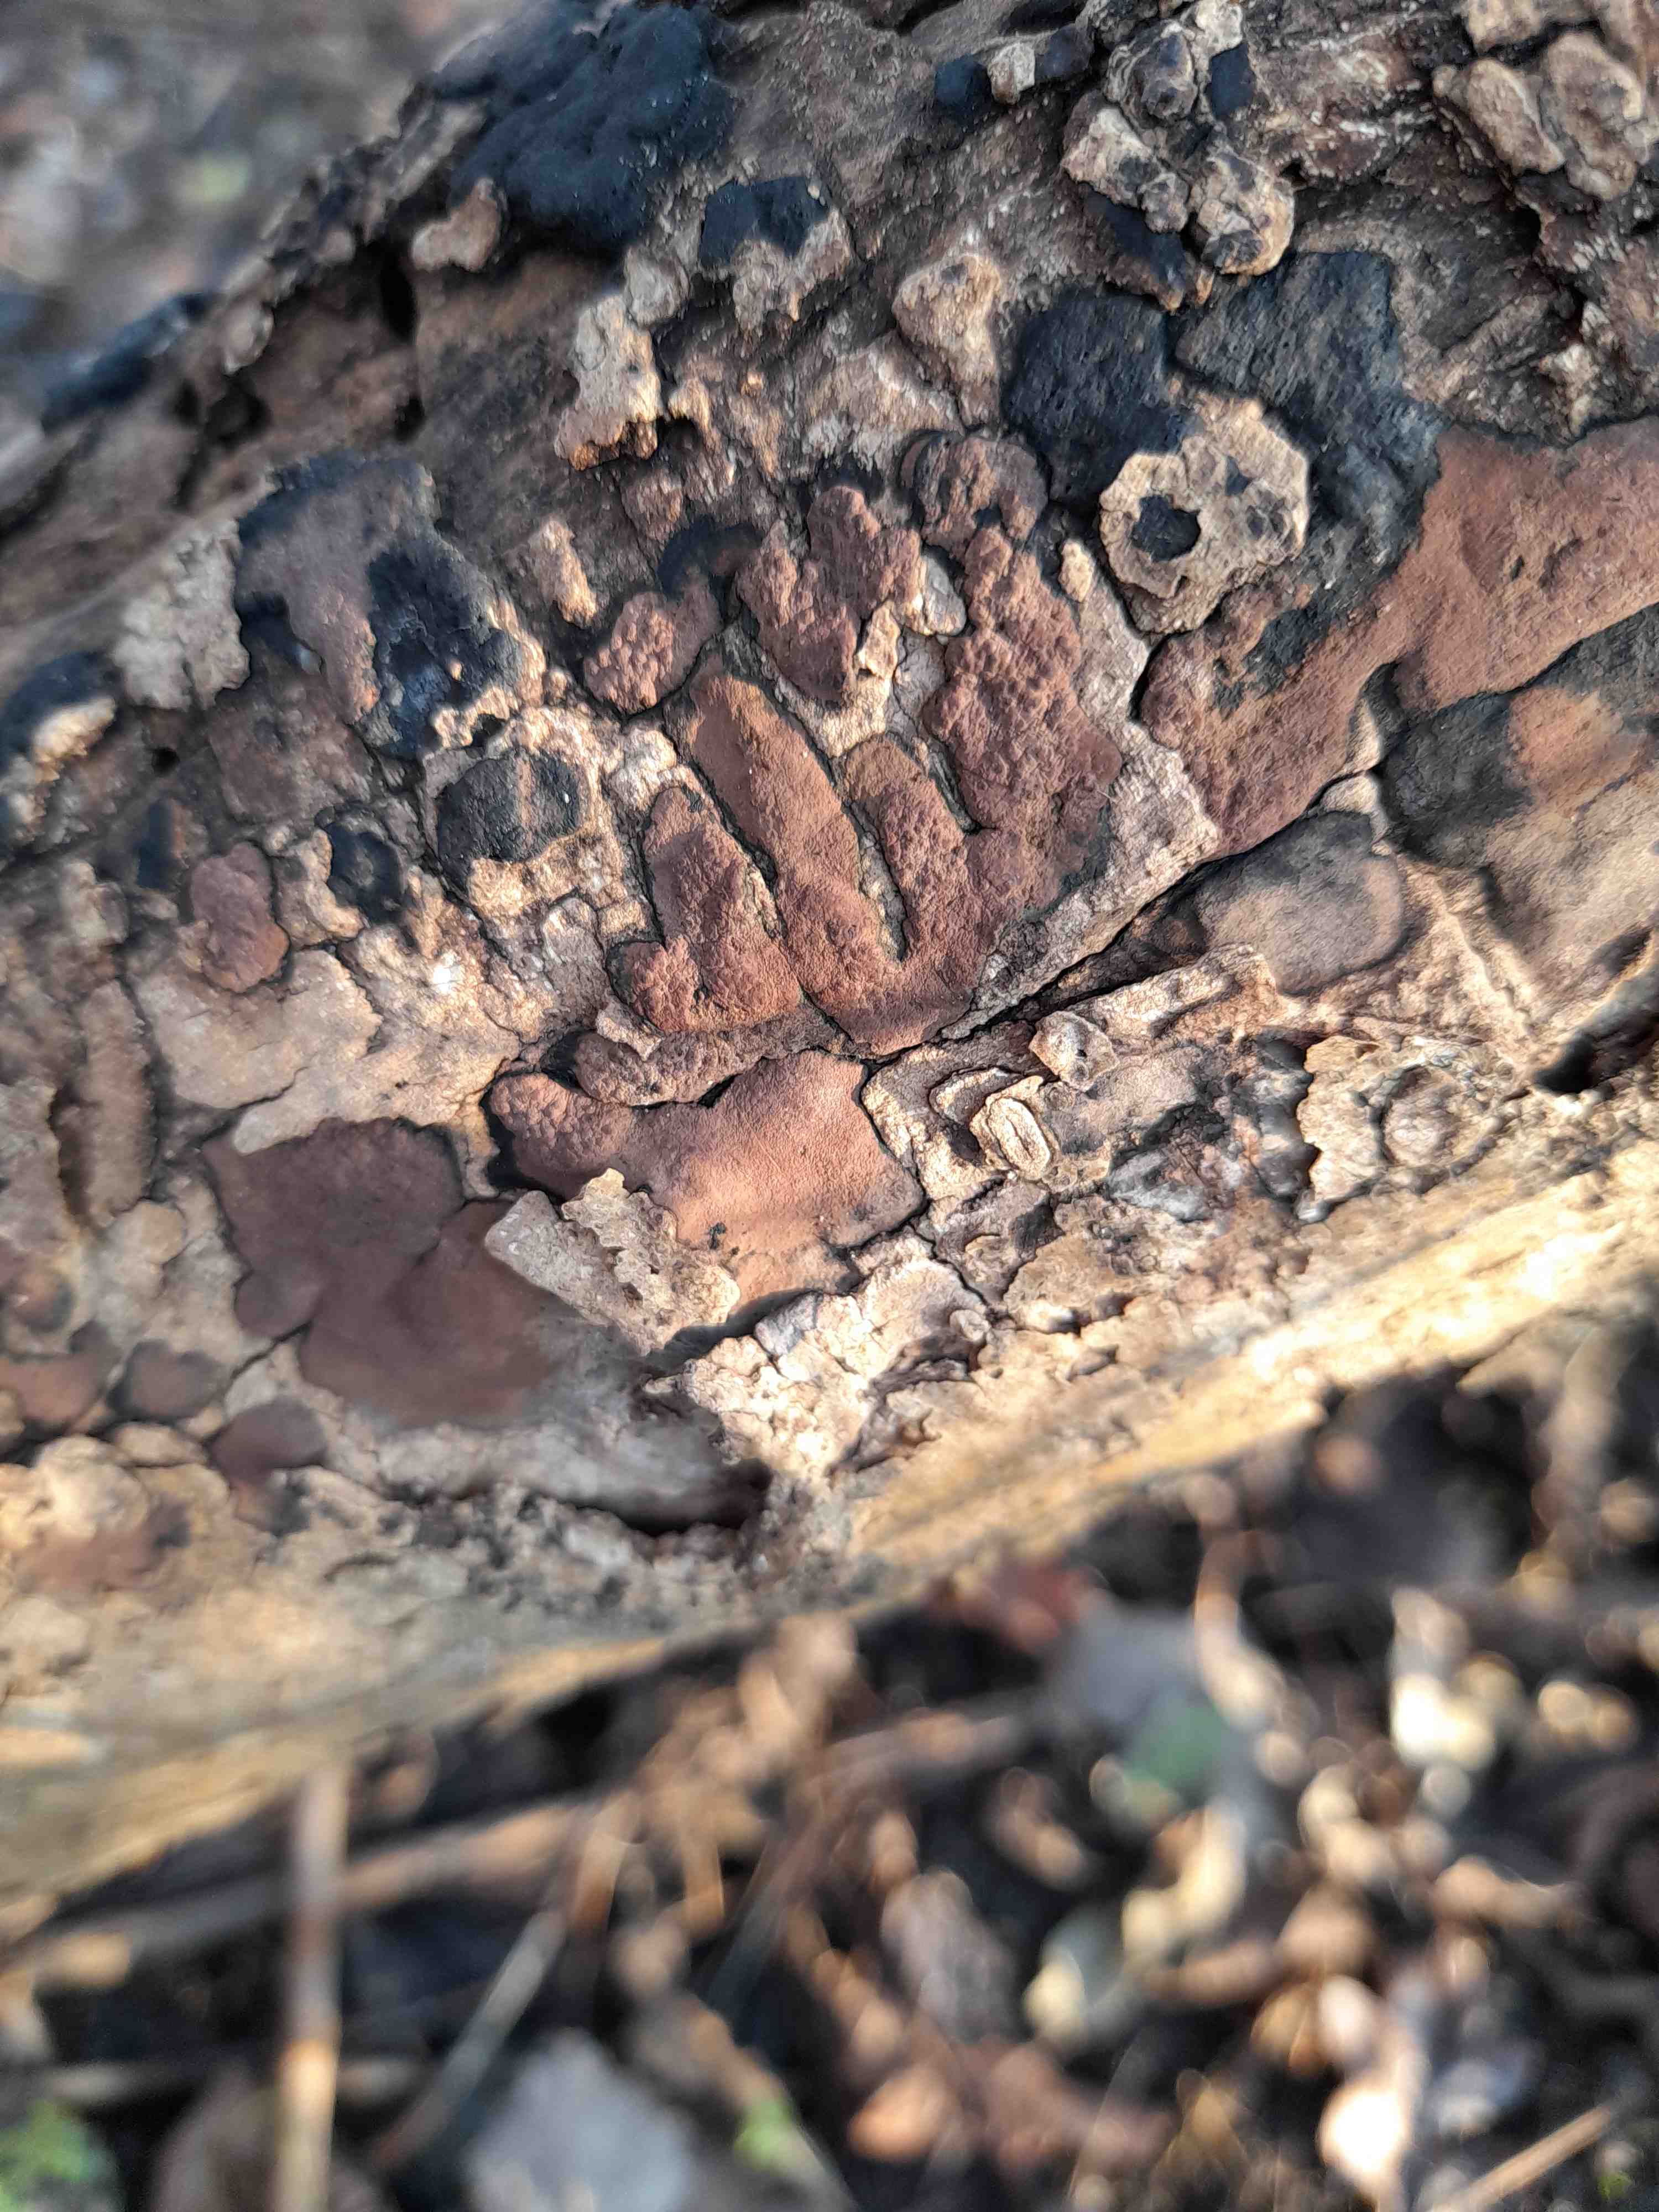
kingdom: Fungi
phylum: Ascomycota
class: Sordariomycetes
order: Xylariales
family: Hypoxylaceae
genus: Hypoxylon
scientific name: Hypoxylon petriniae
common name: nedsænket kulbær
